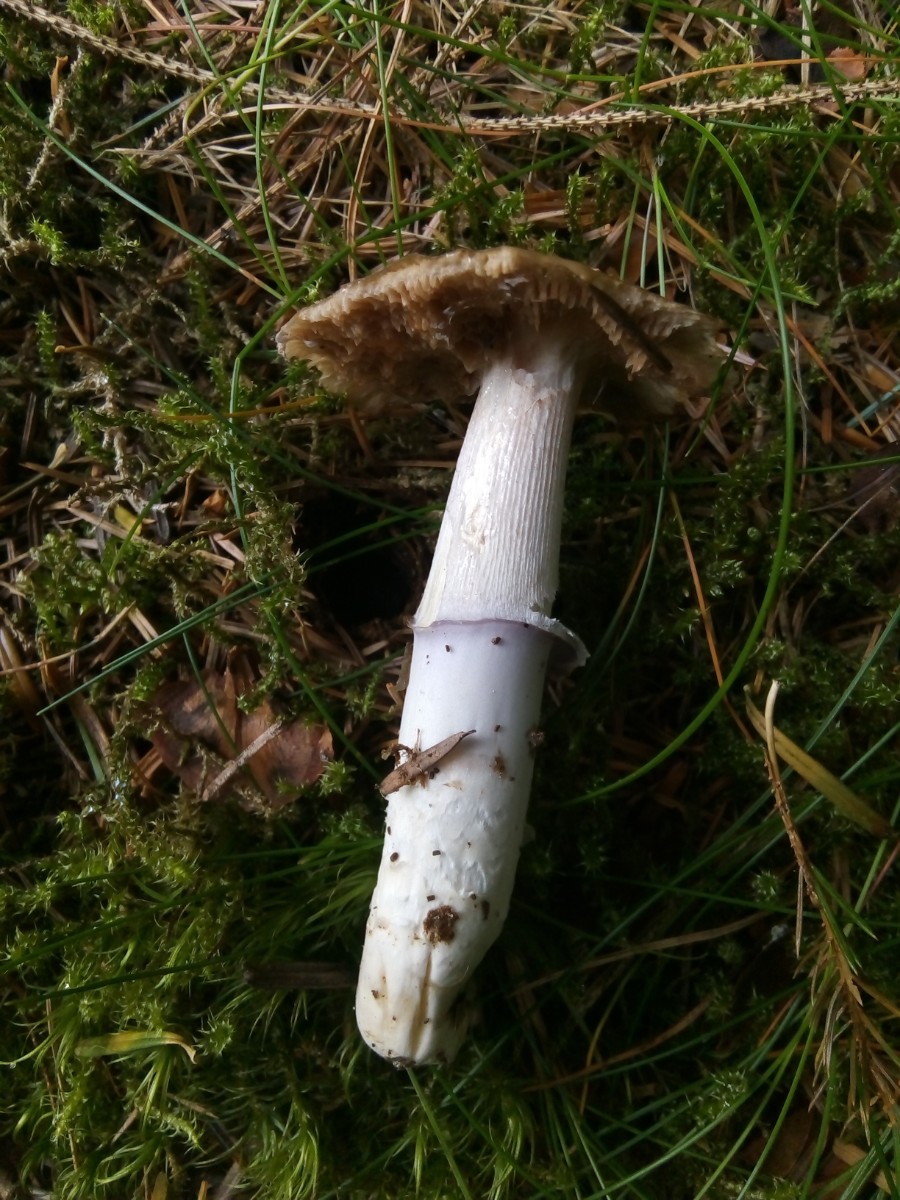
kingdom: Fungi
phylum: Basidiomycota
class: Agaricomycetes
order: Agaricales
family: Cortinariaceae
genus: Cortinarius
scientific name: Cortinarius elatior
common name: høj slørhat
